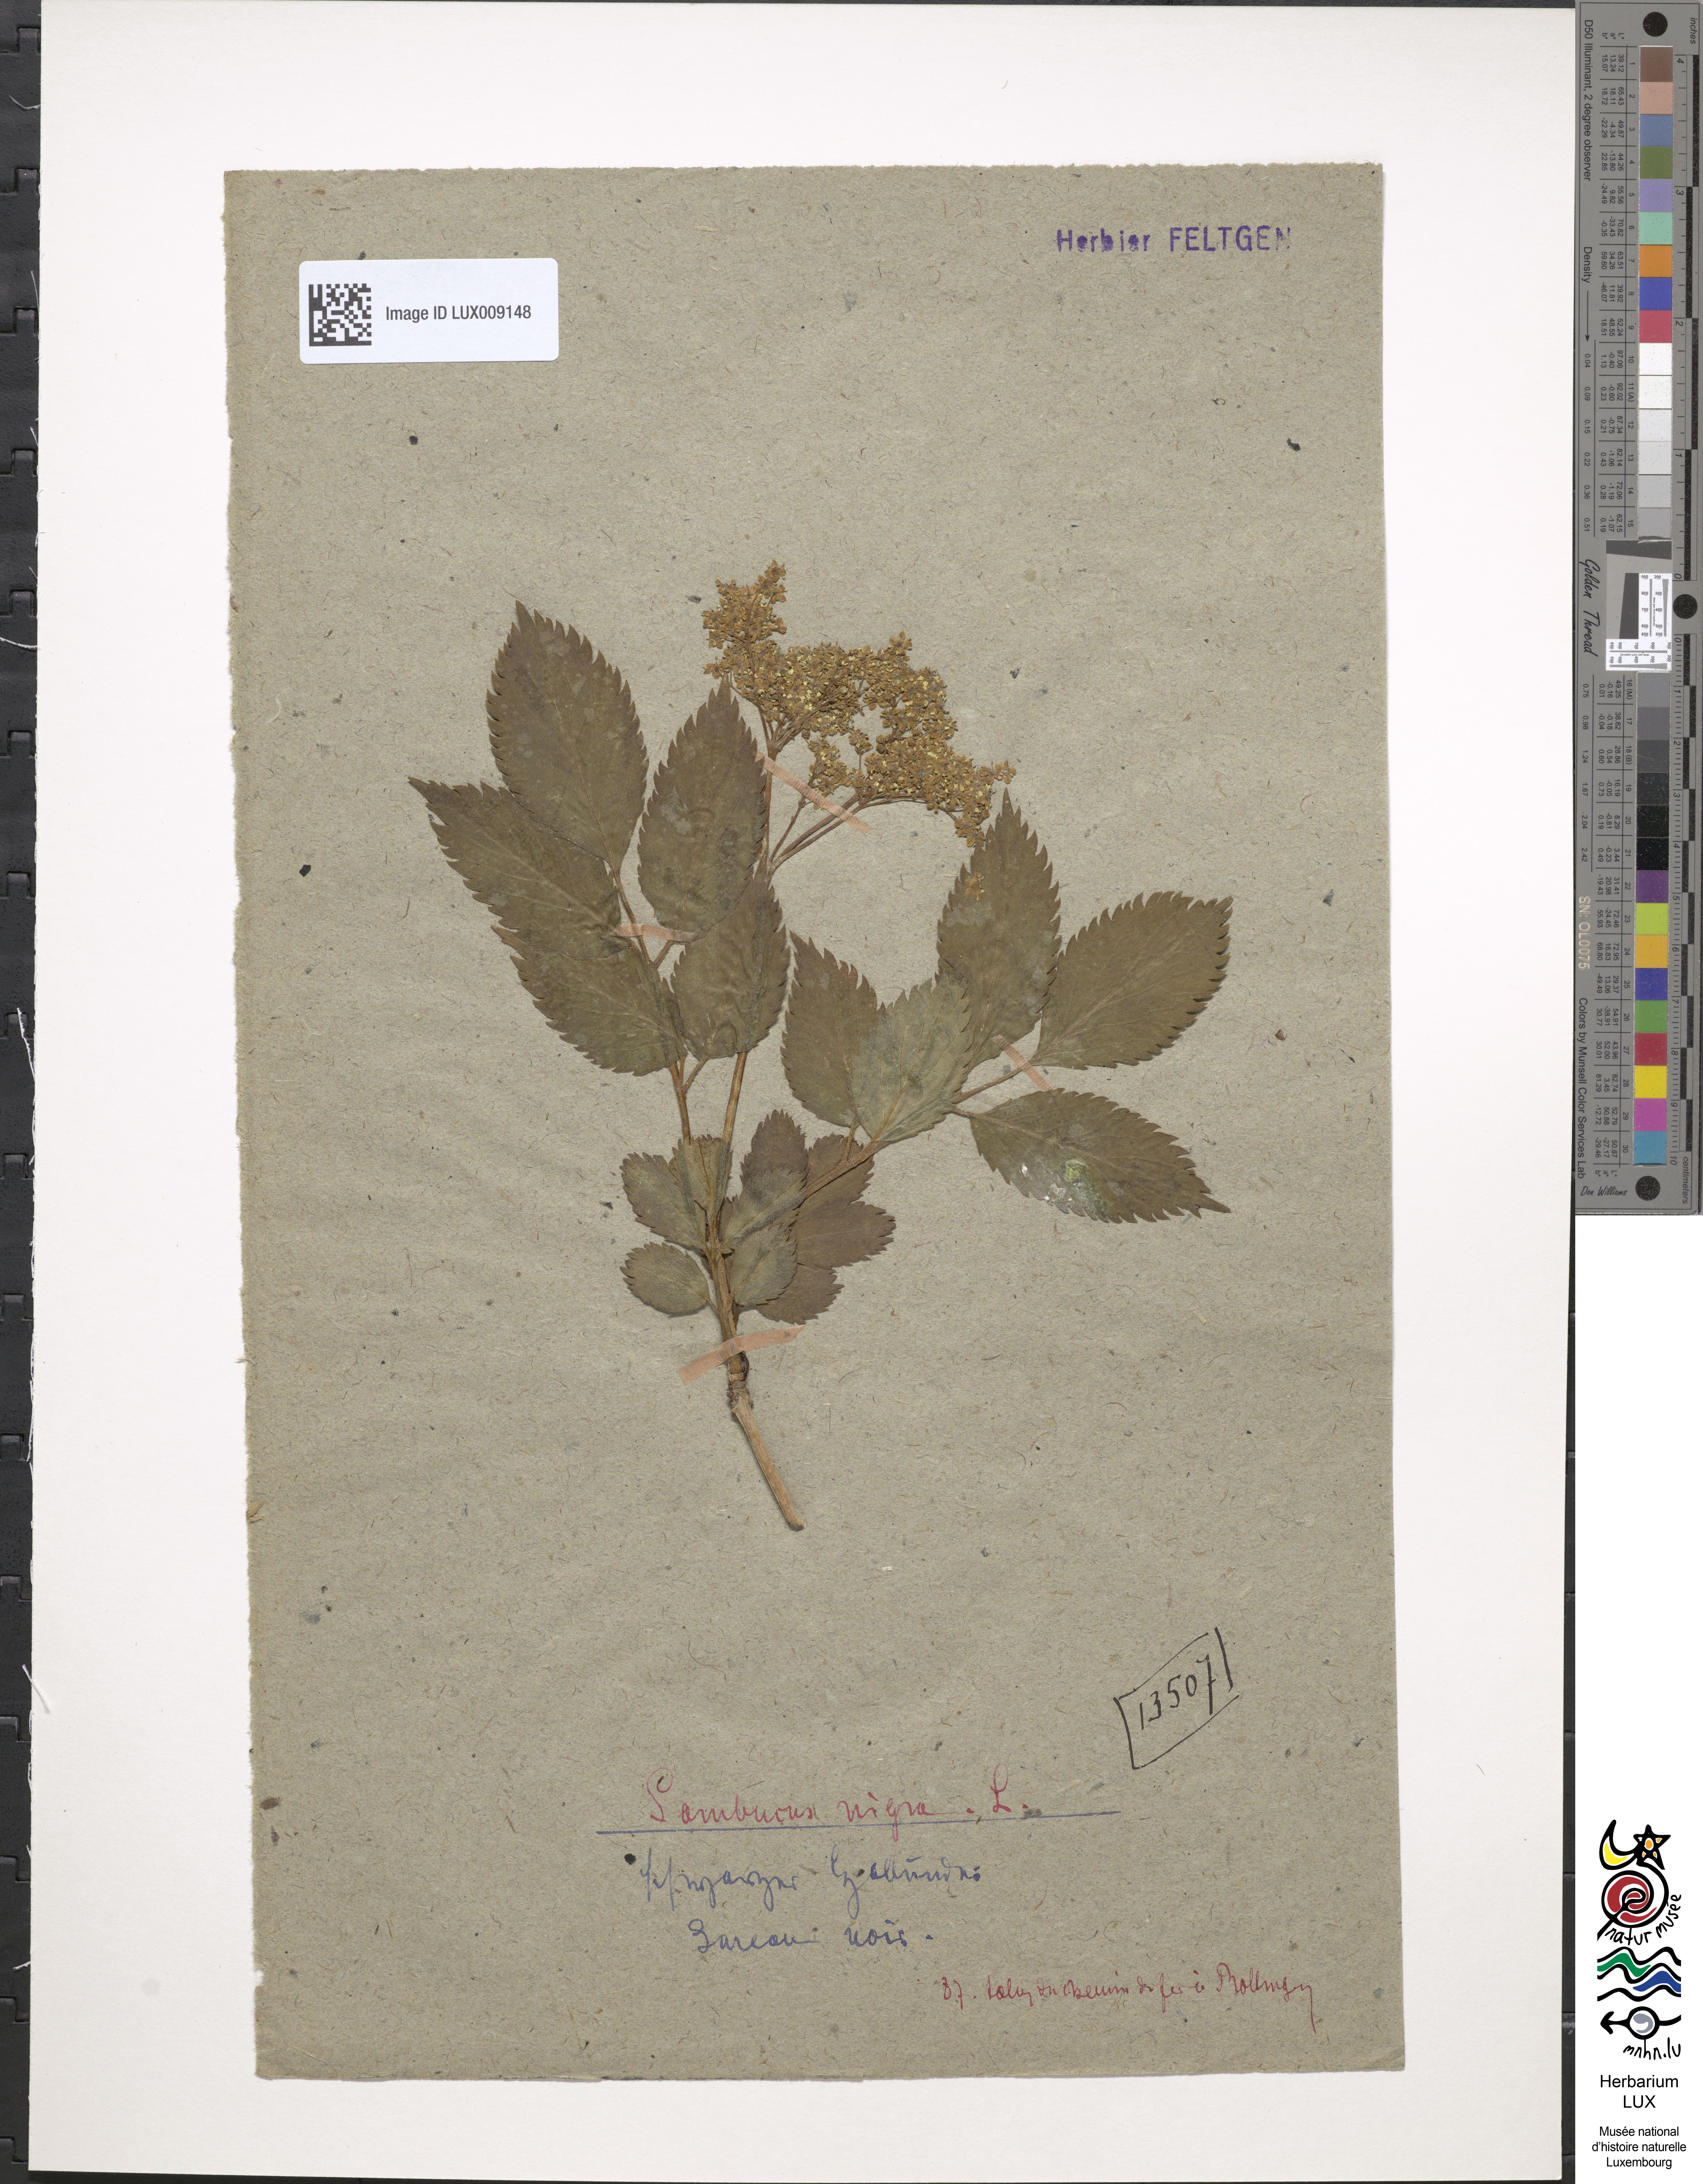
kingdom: Plantae
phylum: Tracheophyta
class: Magnoliopsida
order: Dipsacales
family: Viburnaceae
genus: Sambucus
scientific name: Sambucus nigra
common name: Elder
